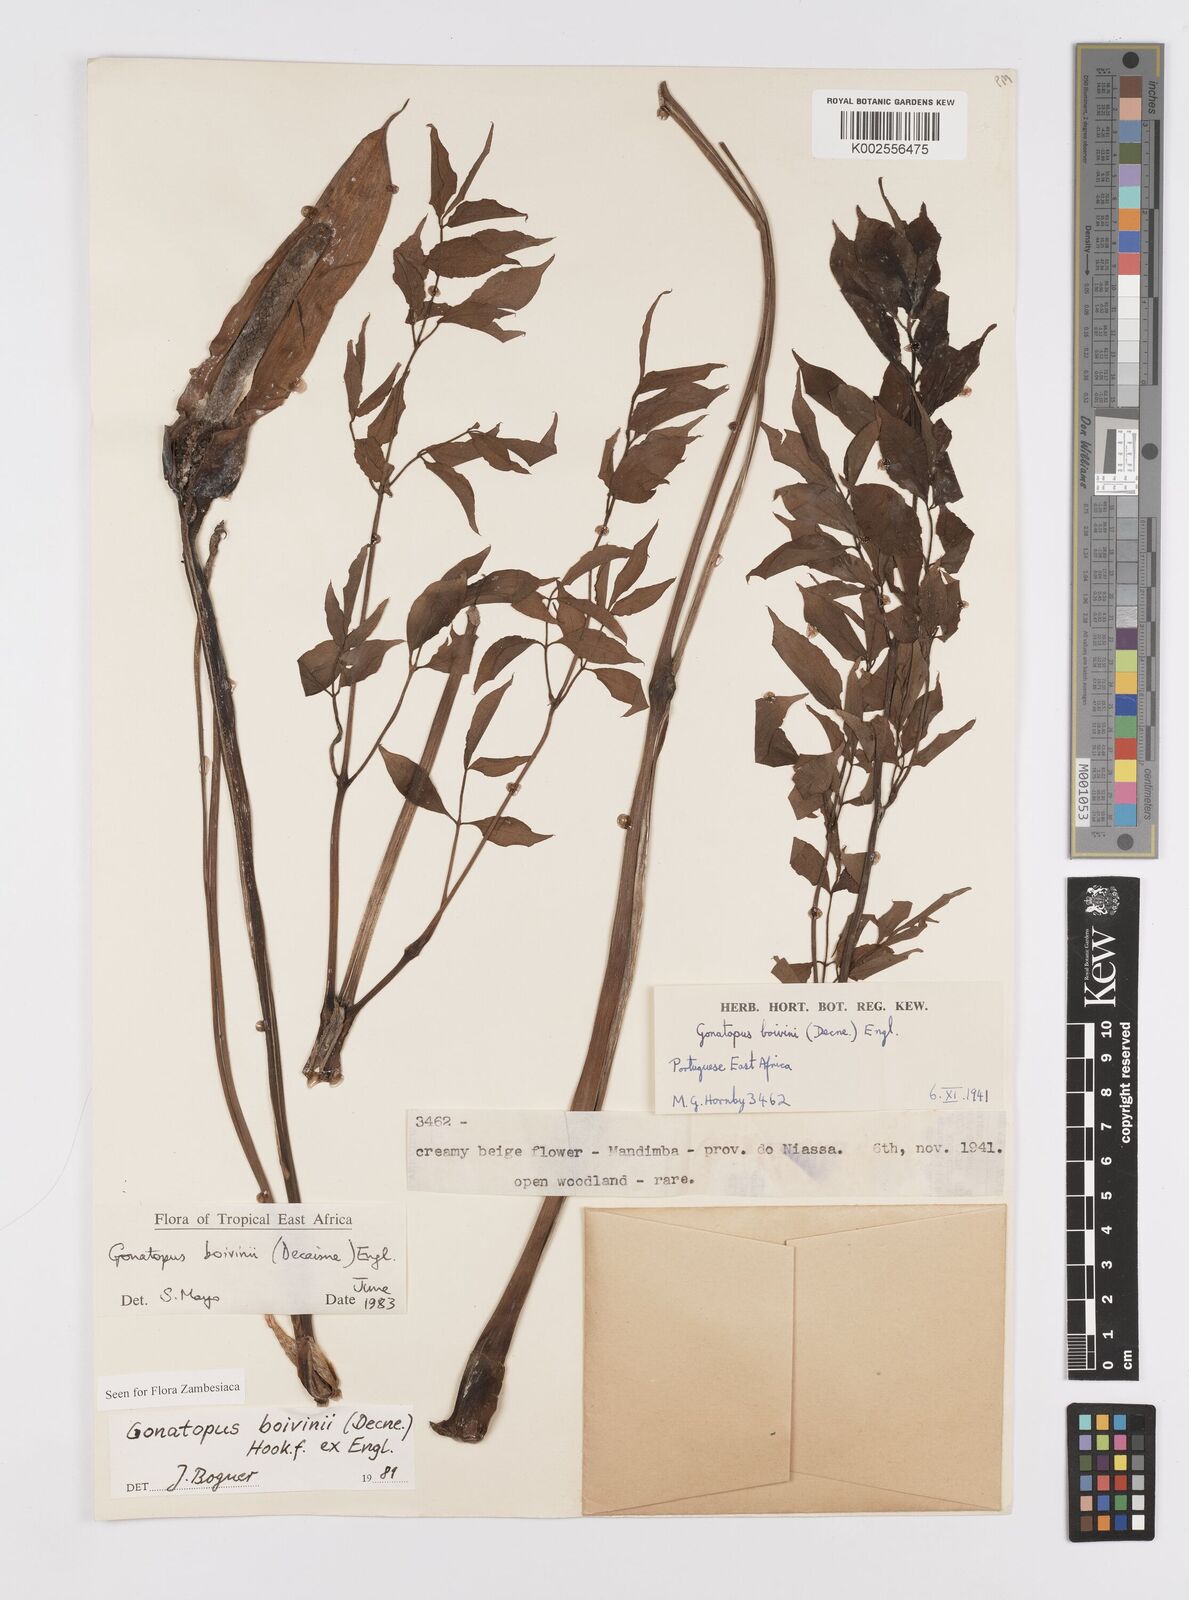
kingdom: Plantae
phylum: Tracheophyta
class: Liliopsida
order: Alismatales
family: Araceae
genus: Gonatopus
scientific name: Gonatopus boivinii
